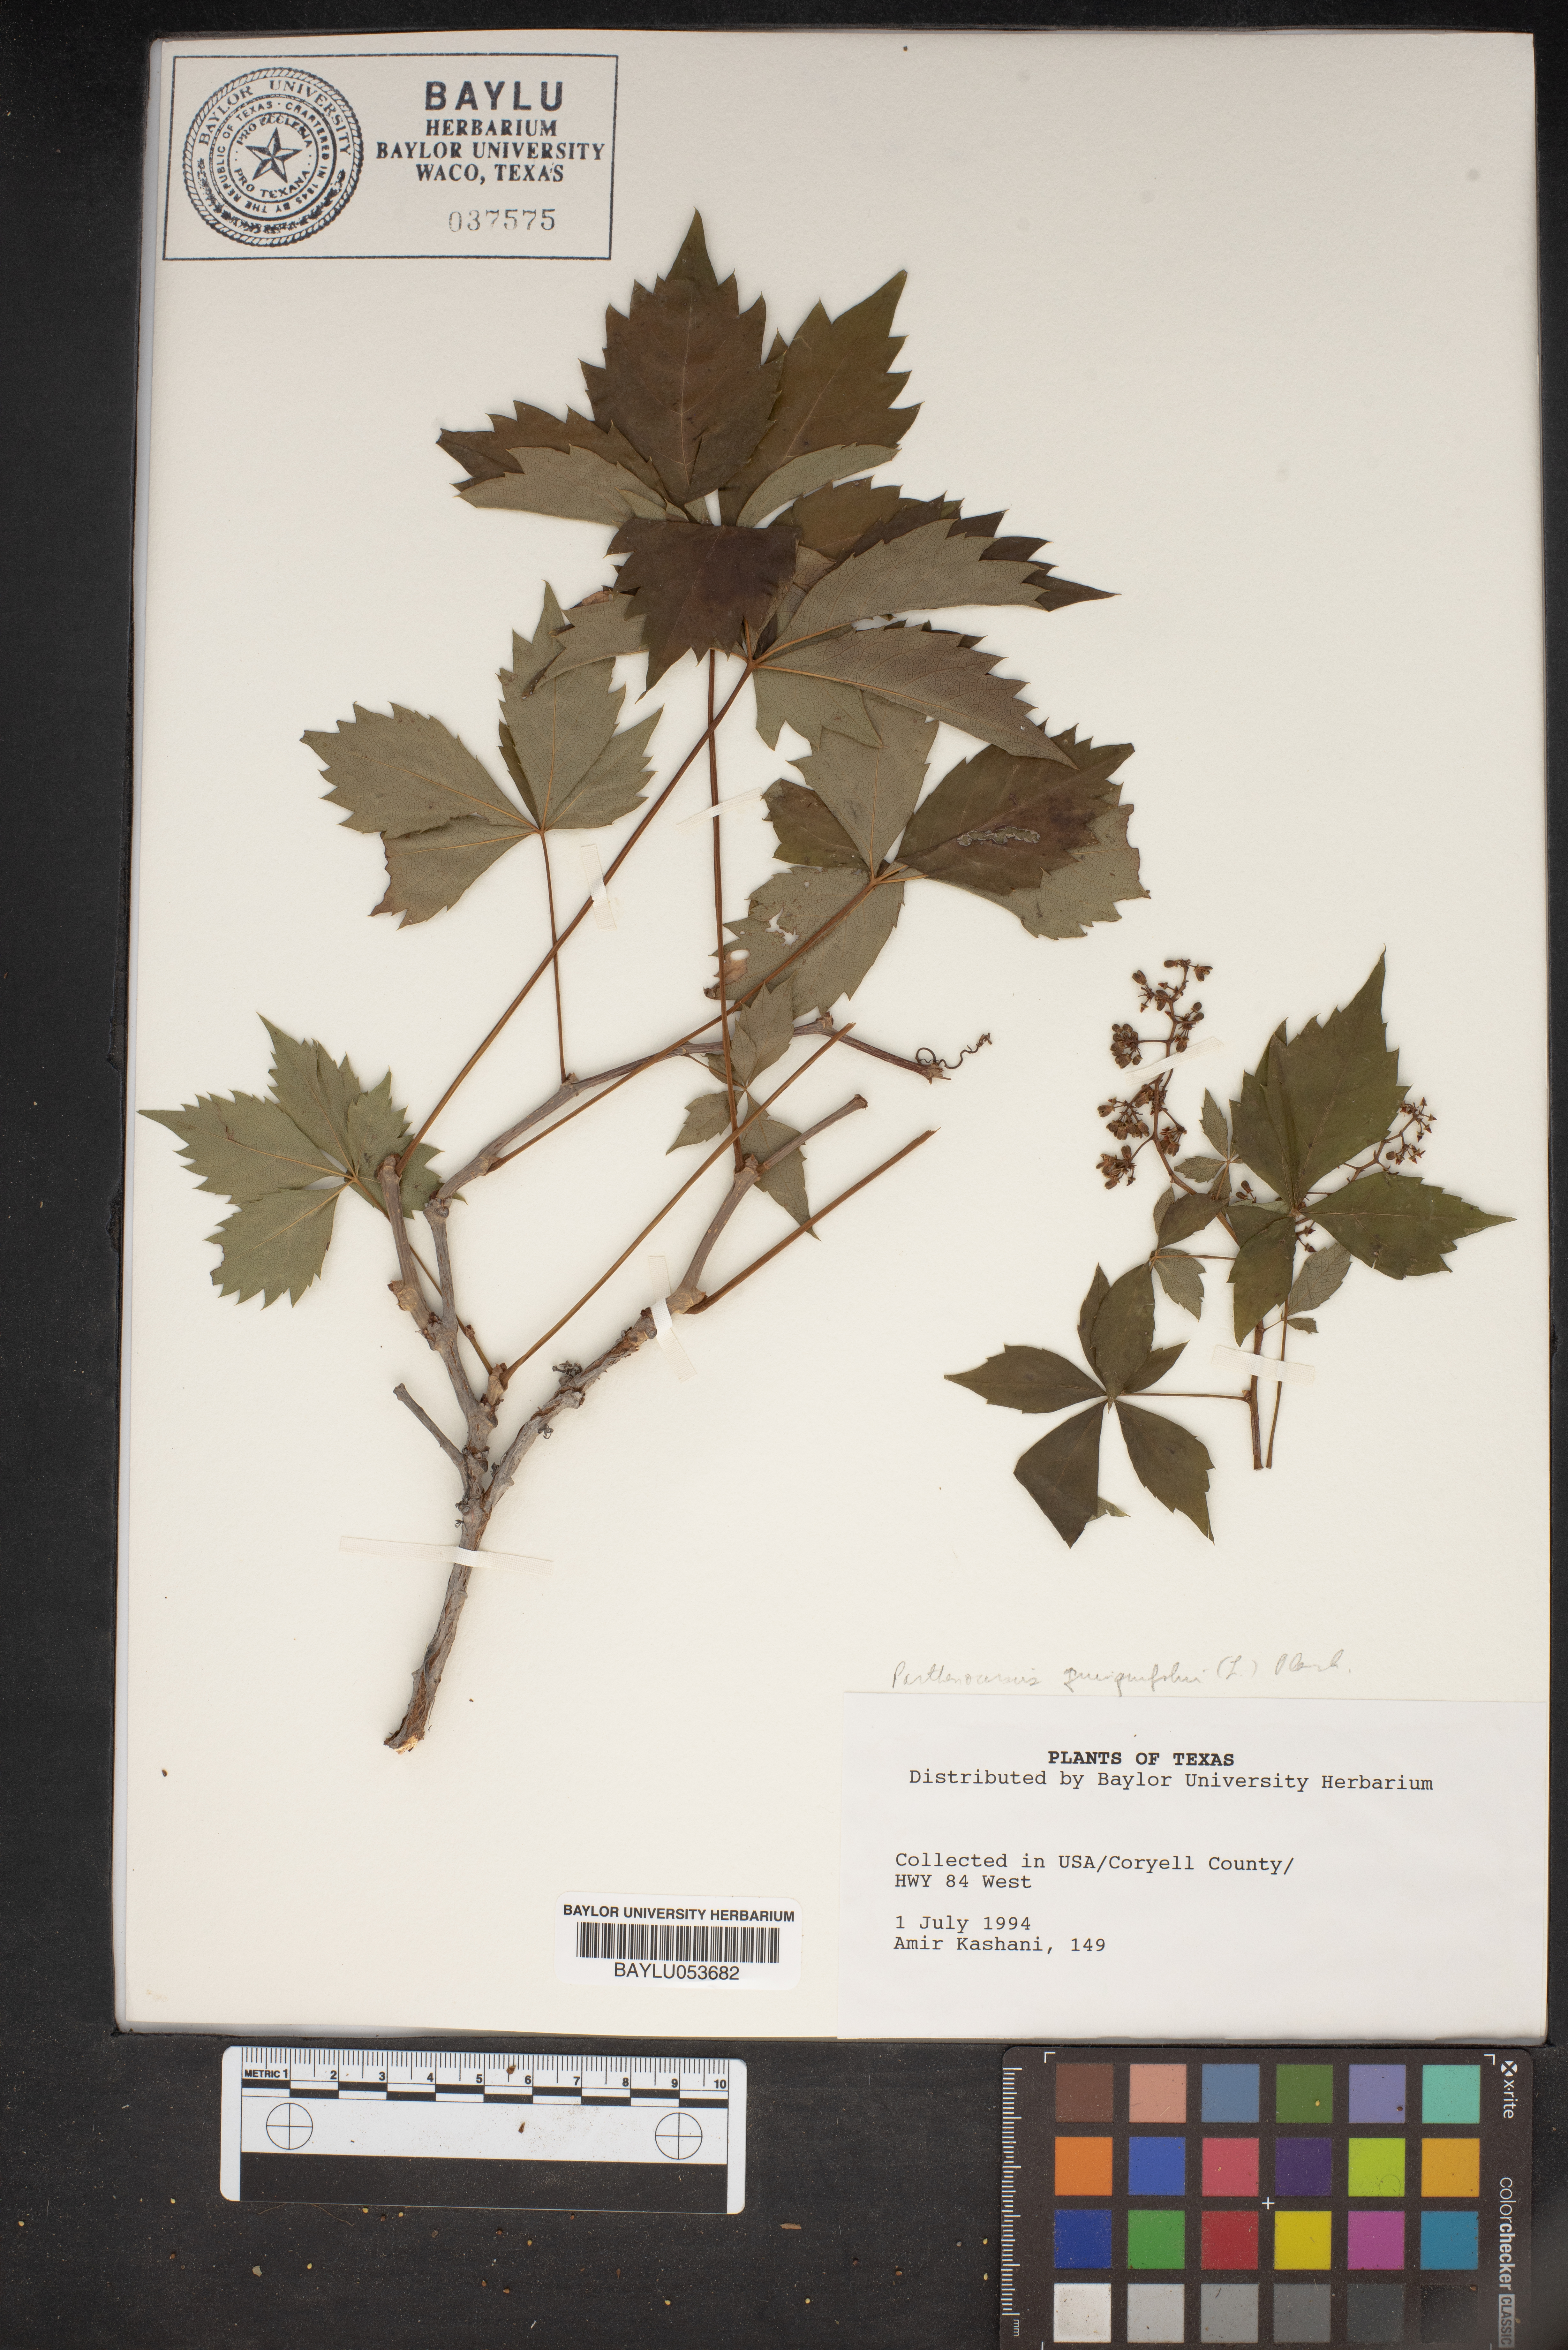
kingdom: Plantae
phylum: Tracheophyta
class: Magnoliopsida
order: Vitales
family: Vitaceae
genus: Parthenocissus
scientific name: Parthenocissus quinquefolia
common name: Virginia-creeper
